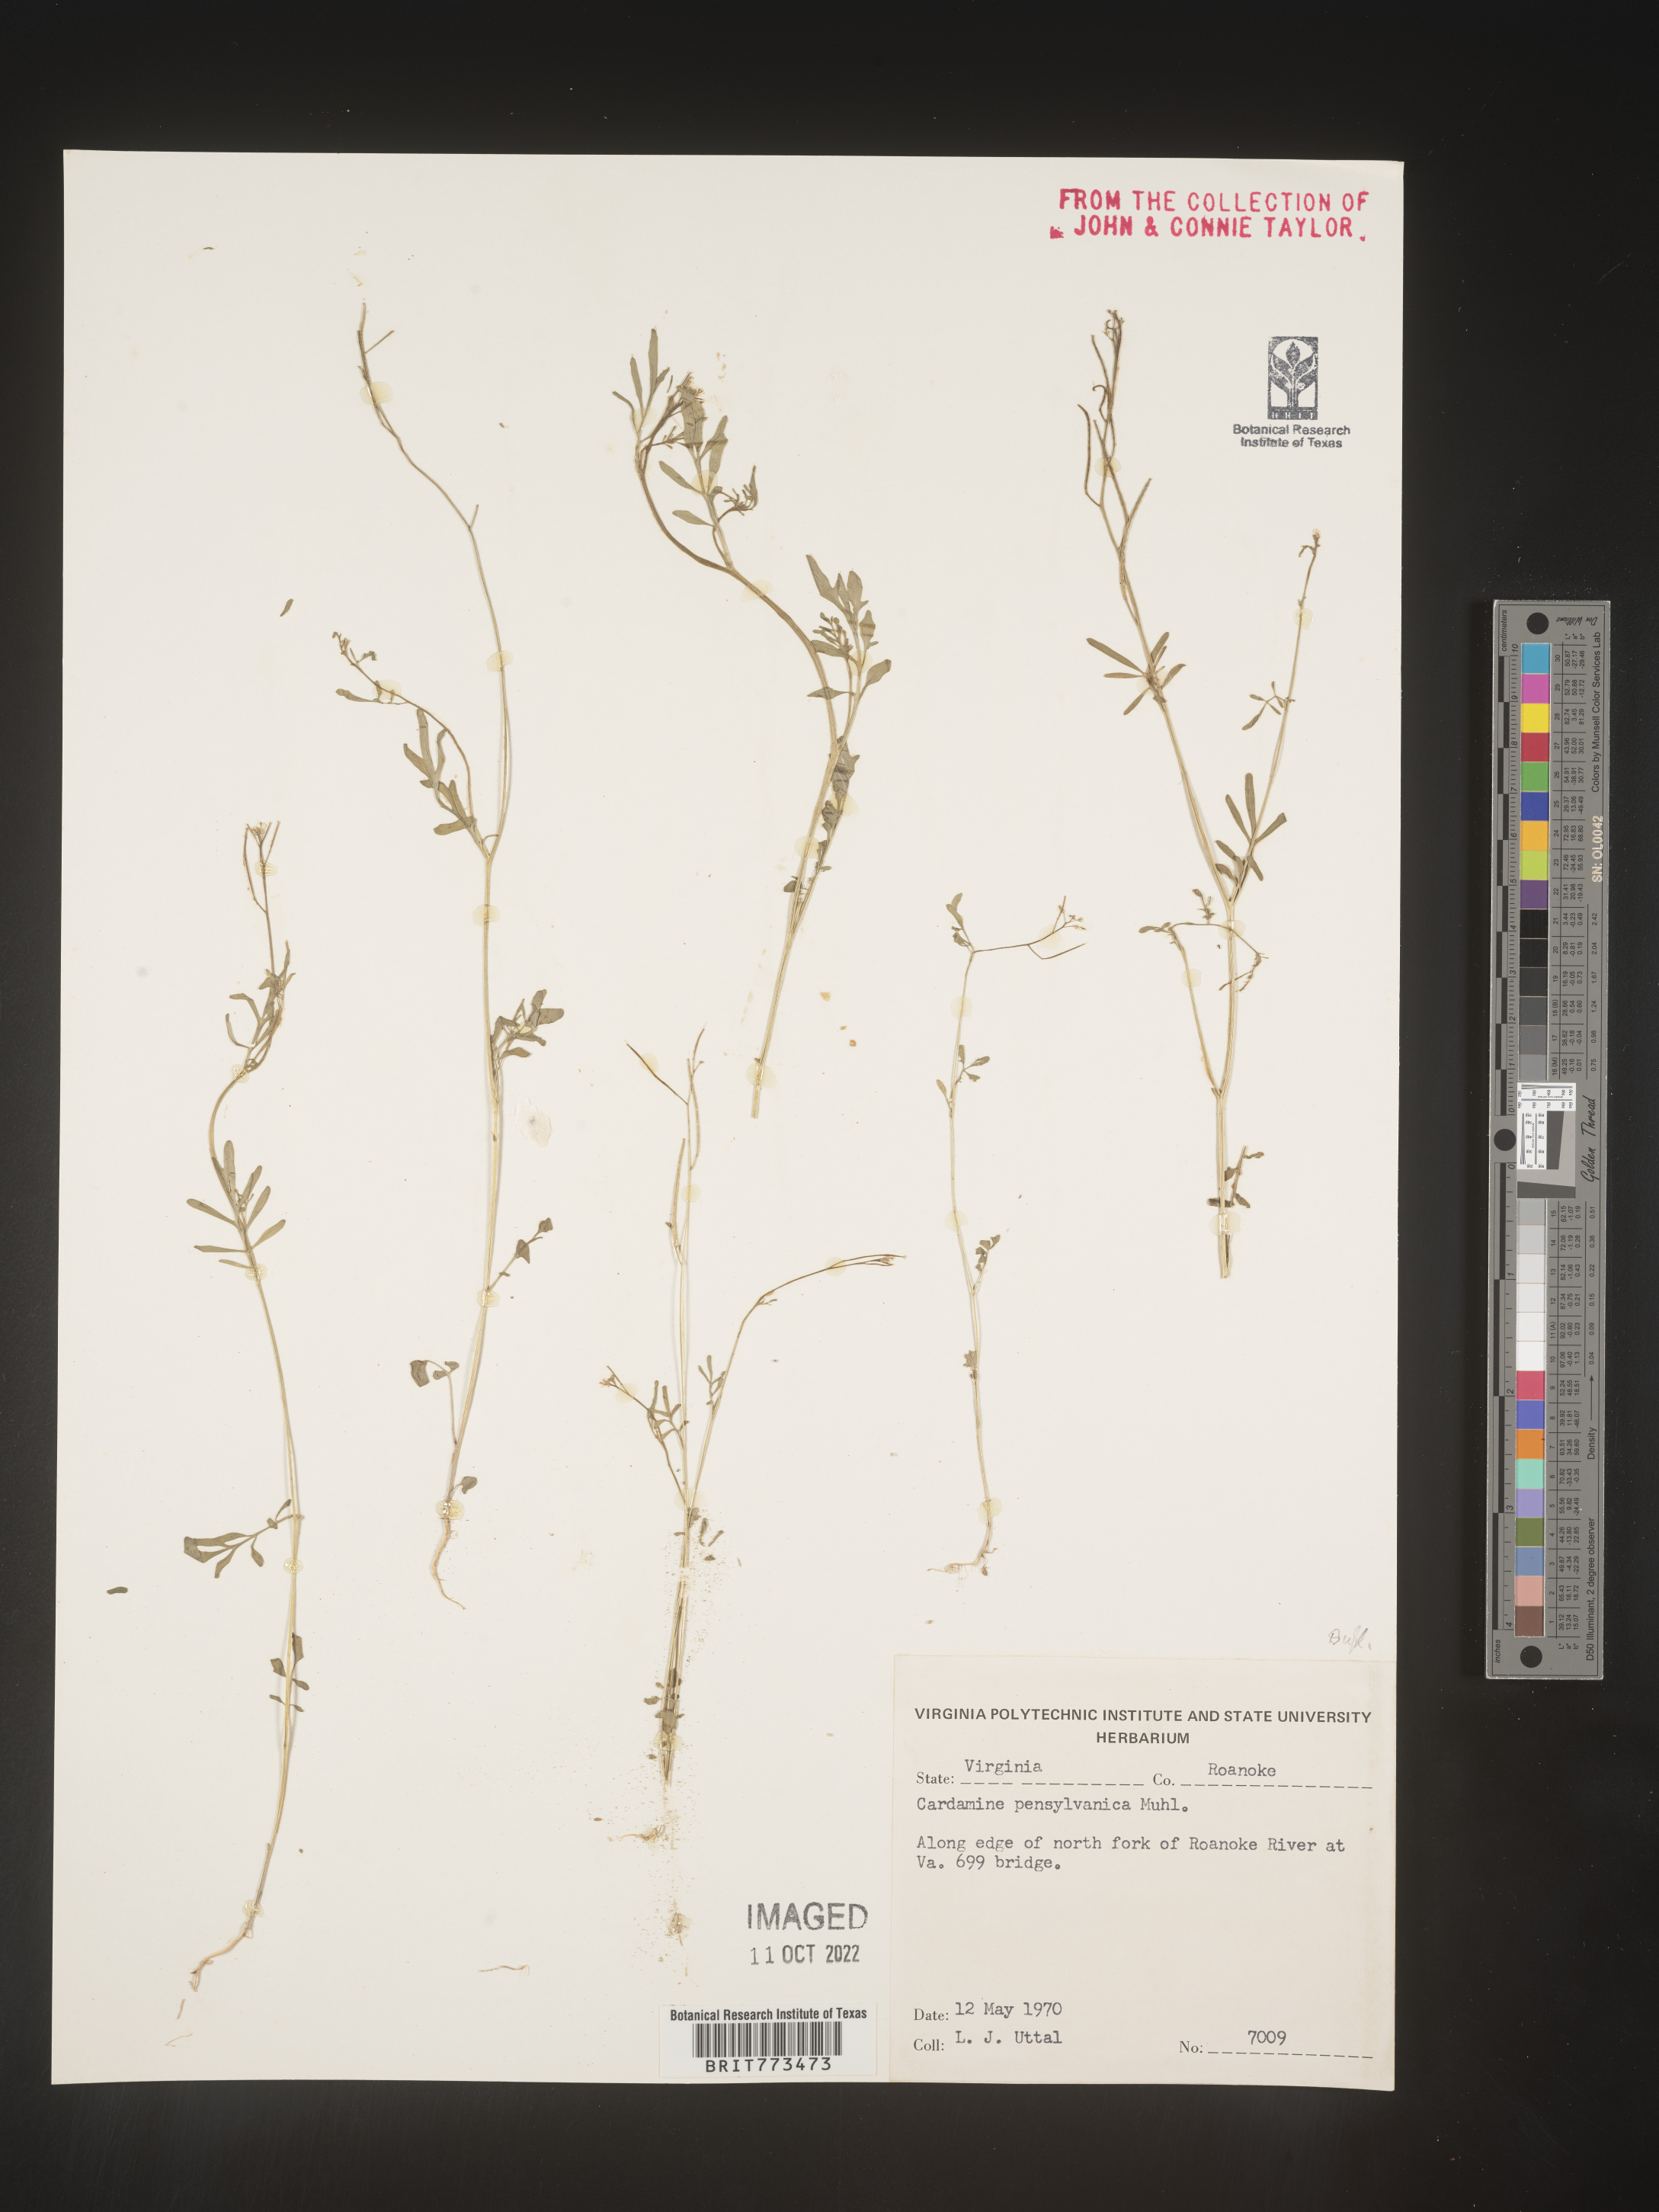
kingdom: Plantae
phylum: Tracheophyta
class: Magnoliopsida
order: Brassicales
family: Brassicaceae
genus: Cardamine
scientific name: Cardamine pensylvanica
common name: Pennsylvania bittercress
